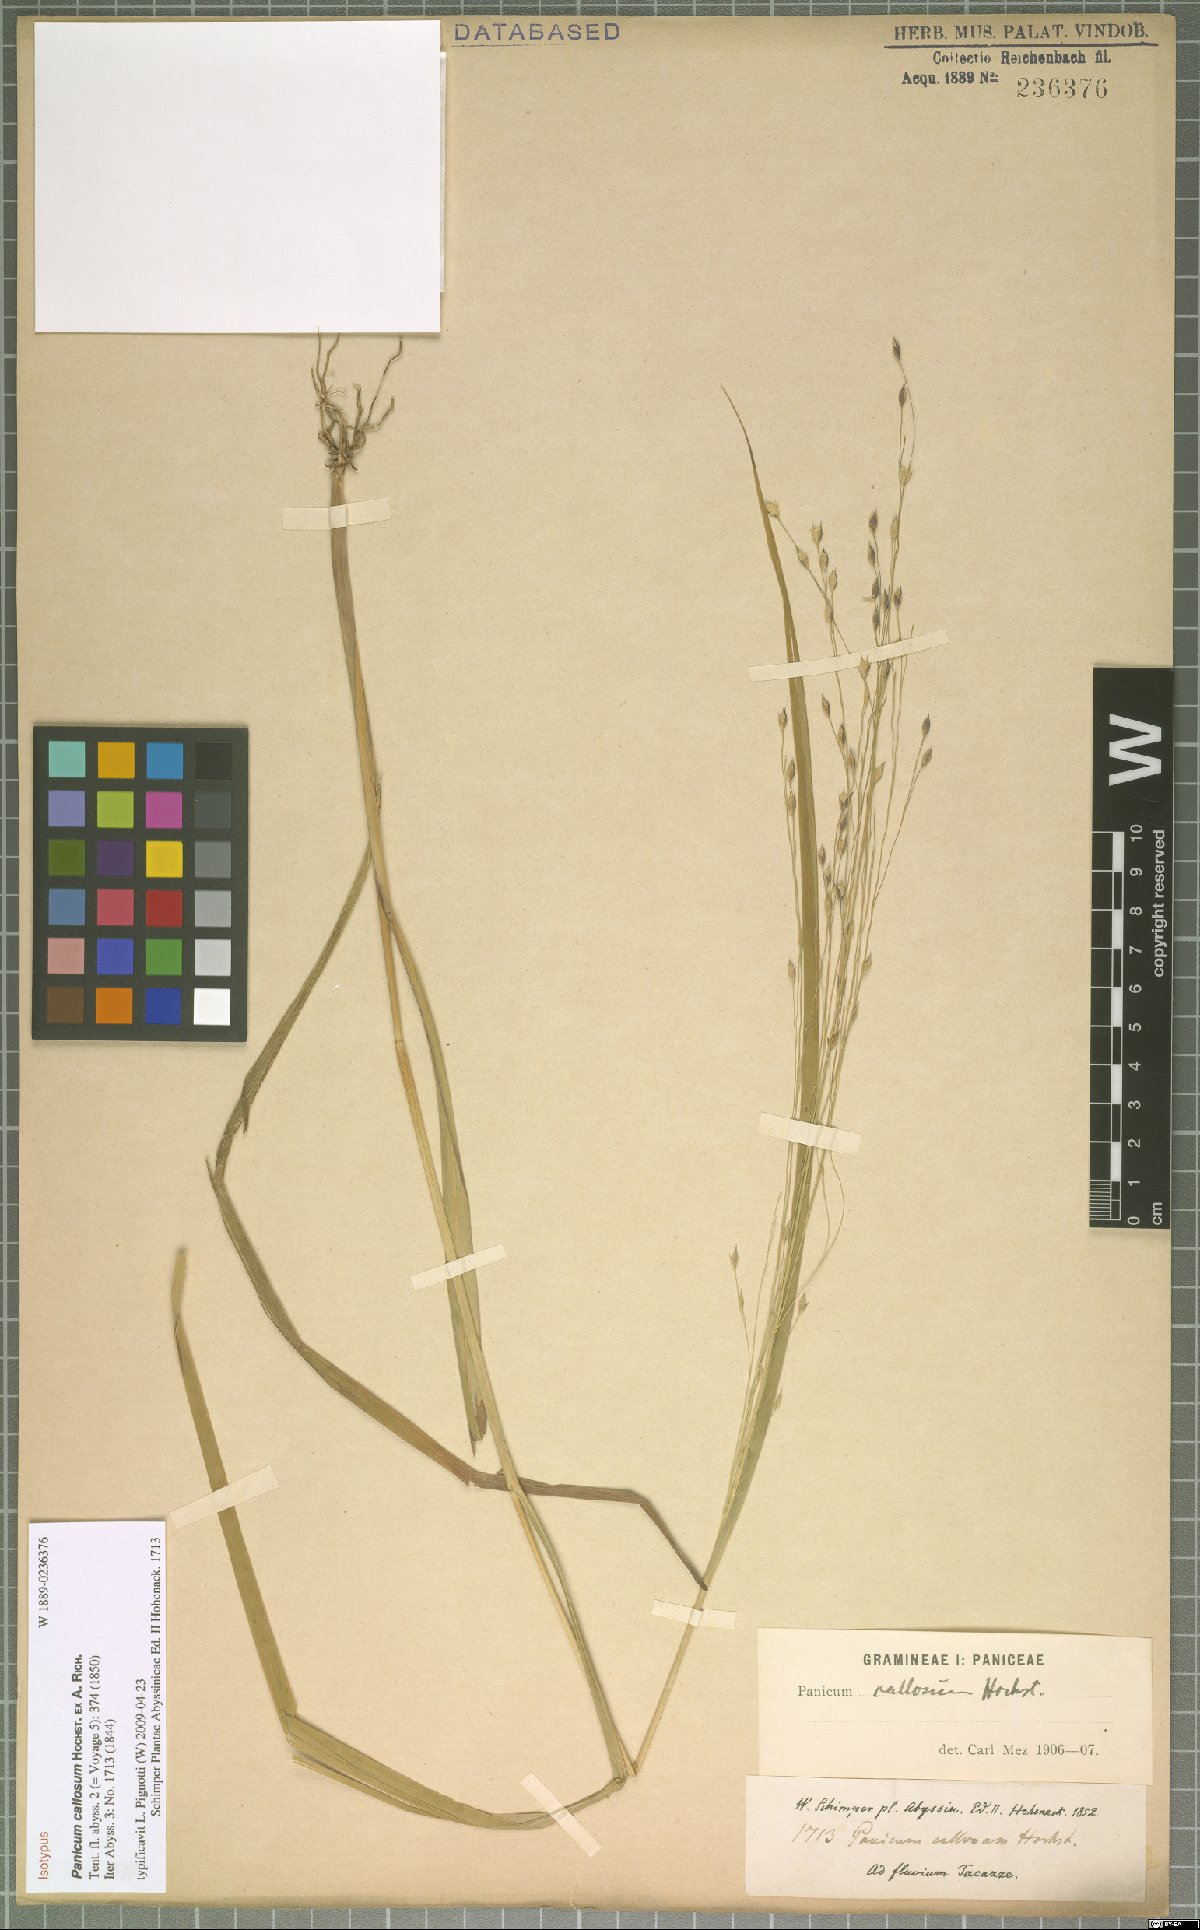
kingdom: Plantae
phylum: Tracheophyta
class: Liliopsida
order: Poales
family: Poaceae
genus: Panicum
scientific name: Panicum callosum
